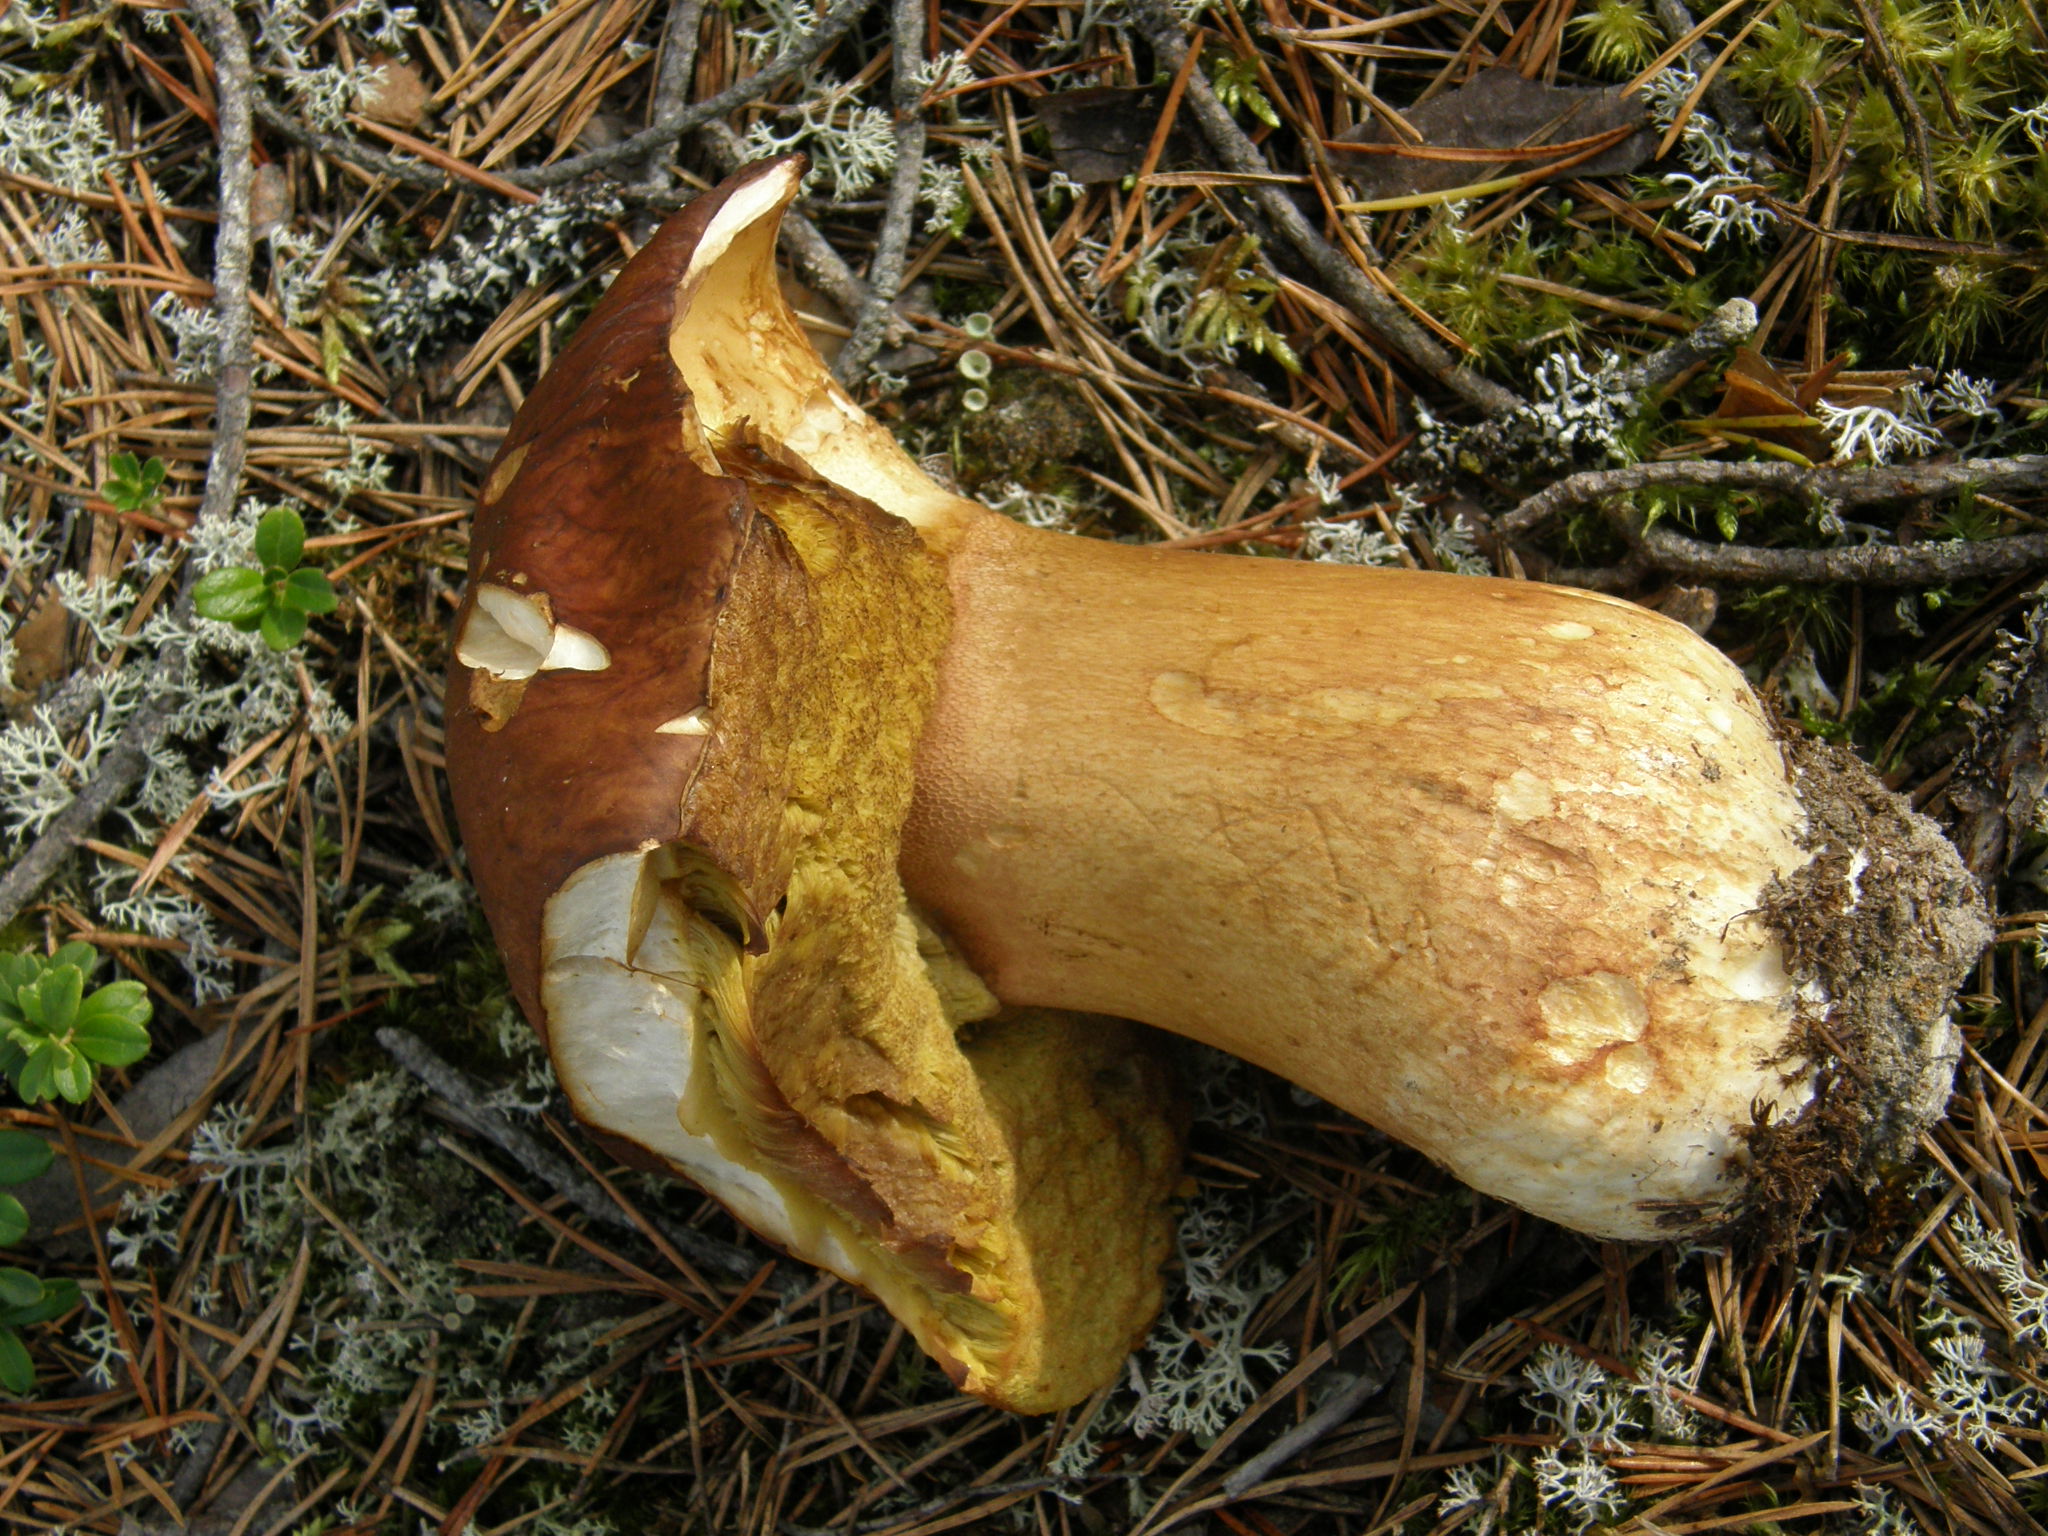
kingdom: Fungi
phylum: Basidiomycota
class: Agaricomycetes
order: Boletales
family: Boletaceae
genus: Boletus
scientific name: Boletus pinophilus
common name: Pine bolete
